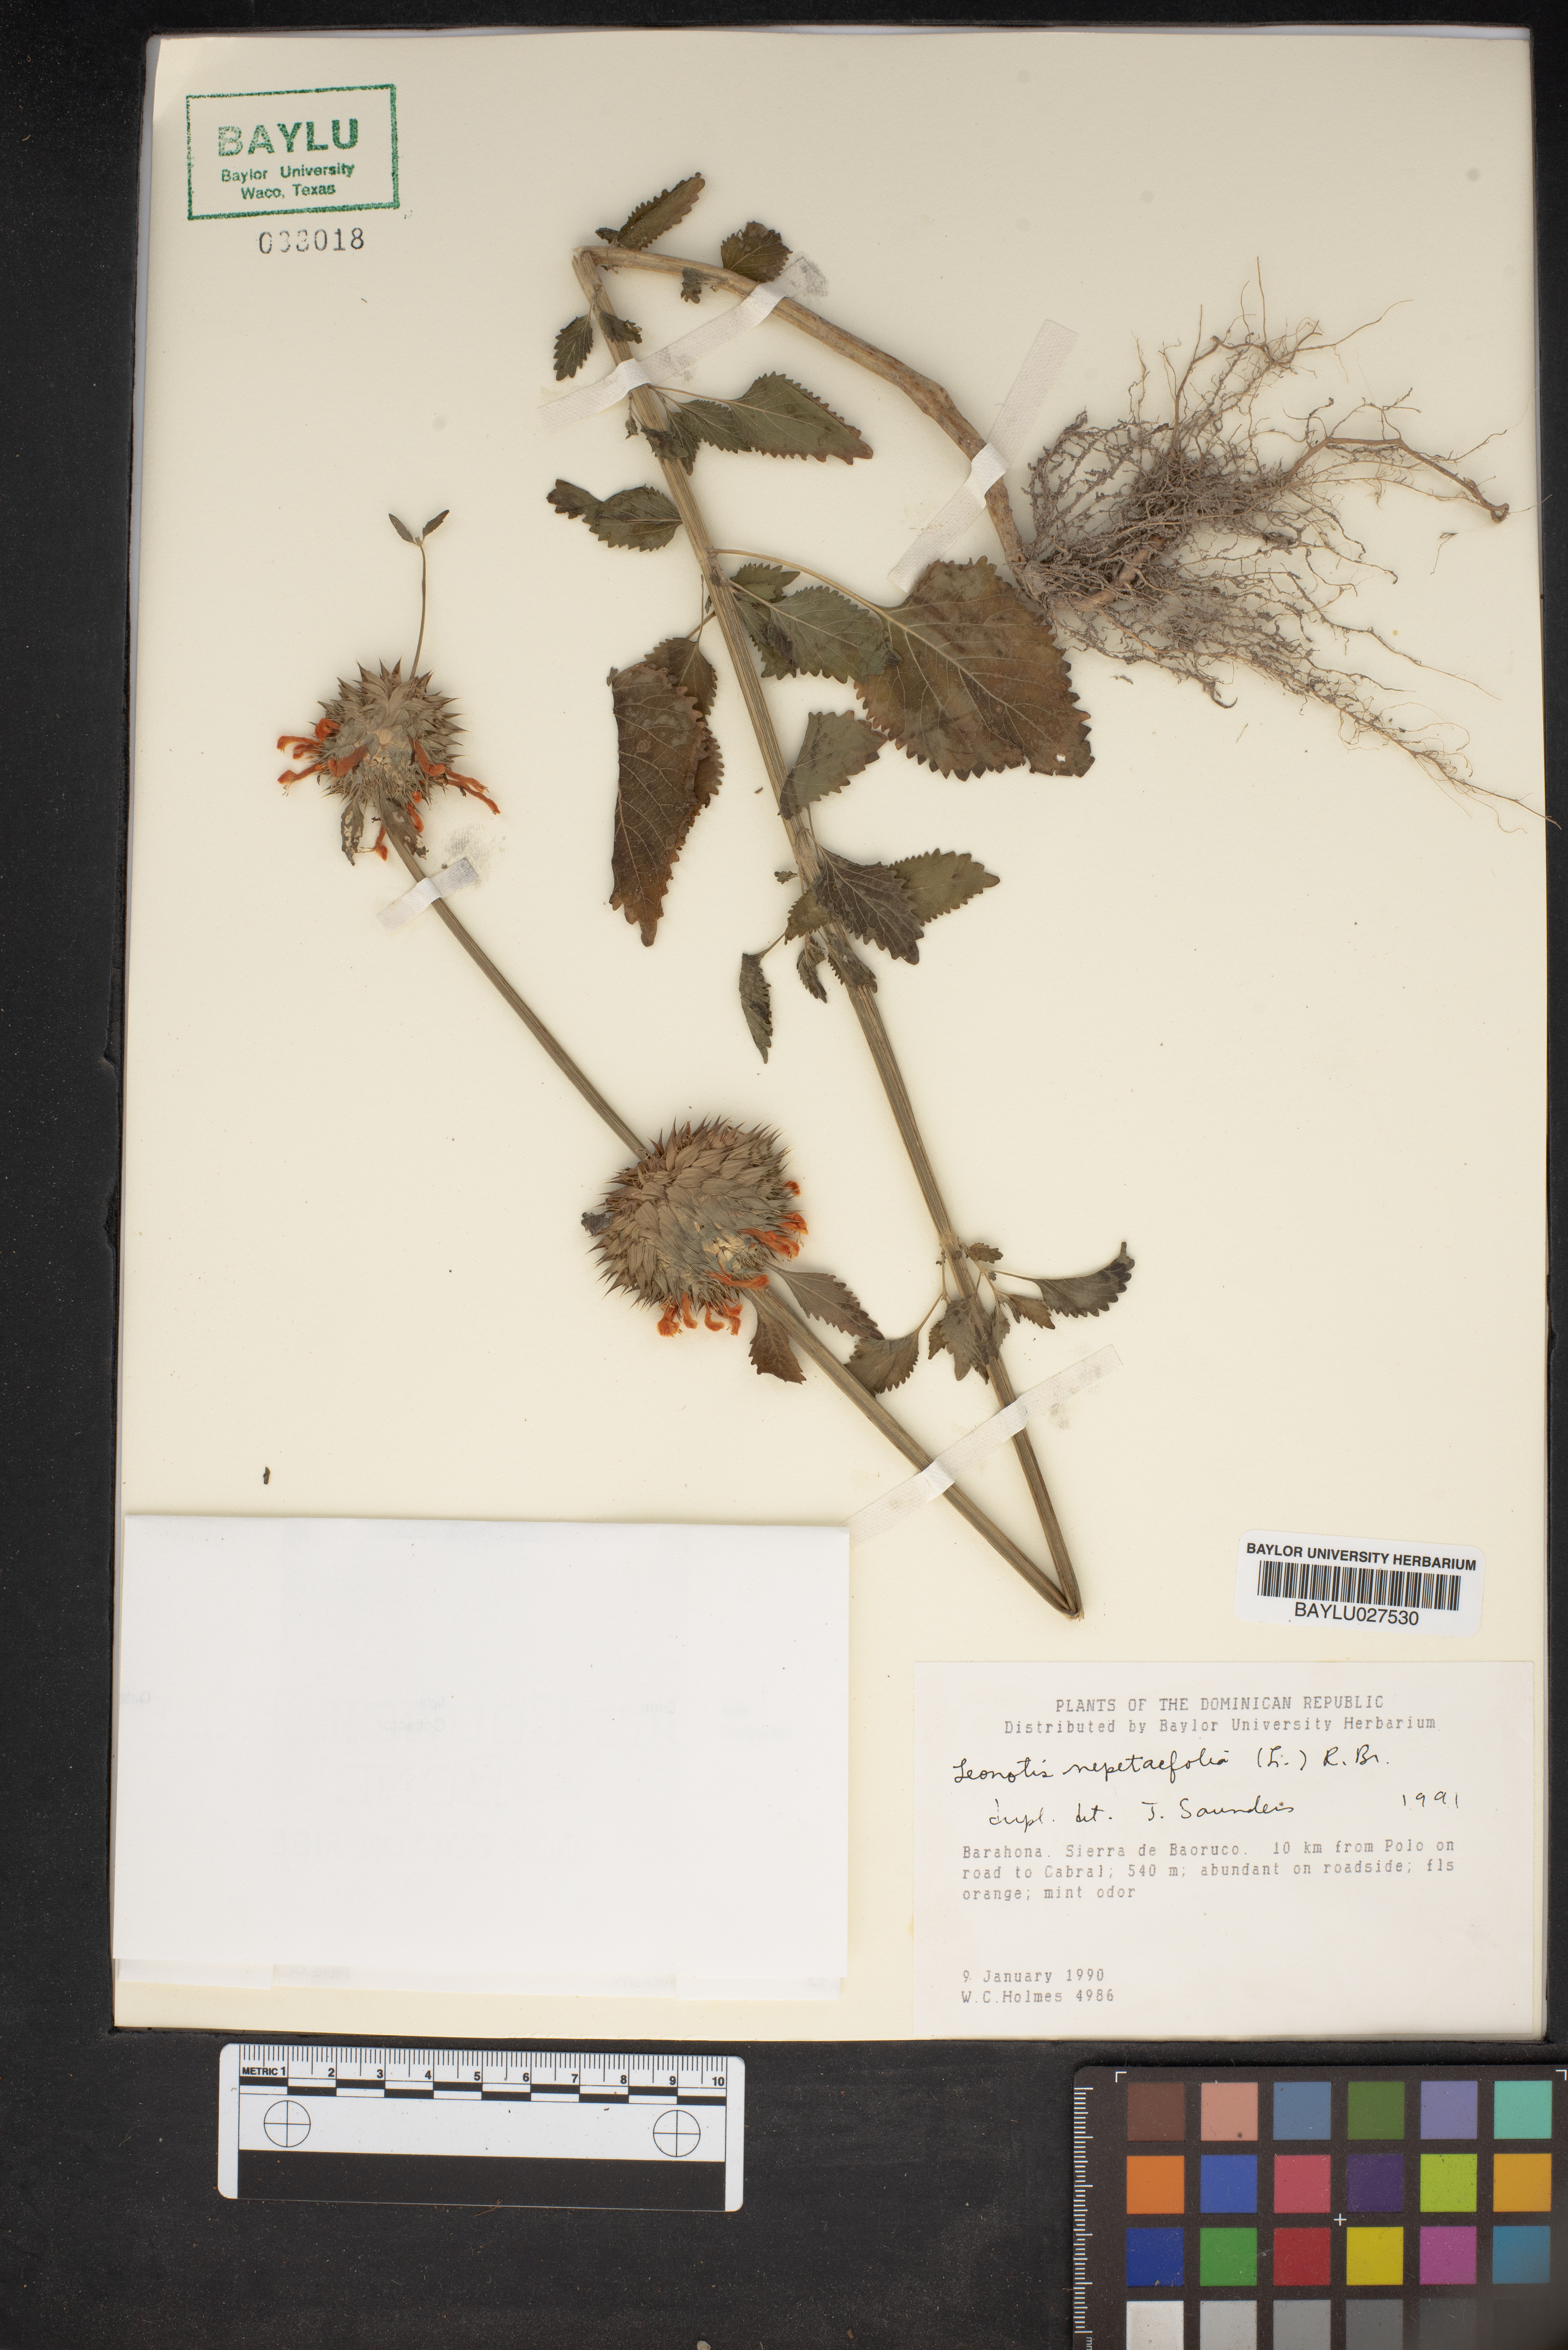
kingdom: Plantae
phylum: Tracheophyta
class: Magnoliopsida
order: Lamiales
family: Lamiaceae
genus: Leonotis
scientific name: Leonotis nepetifolia
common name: Christmas candlestick
